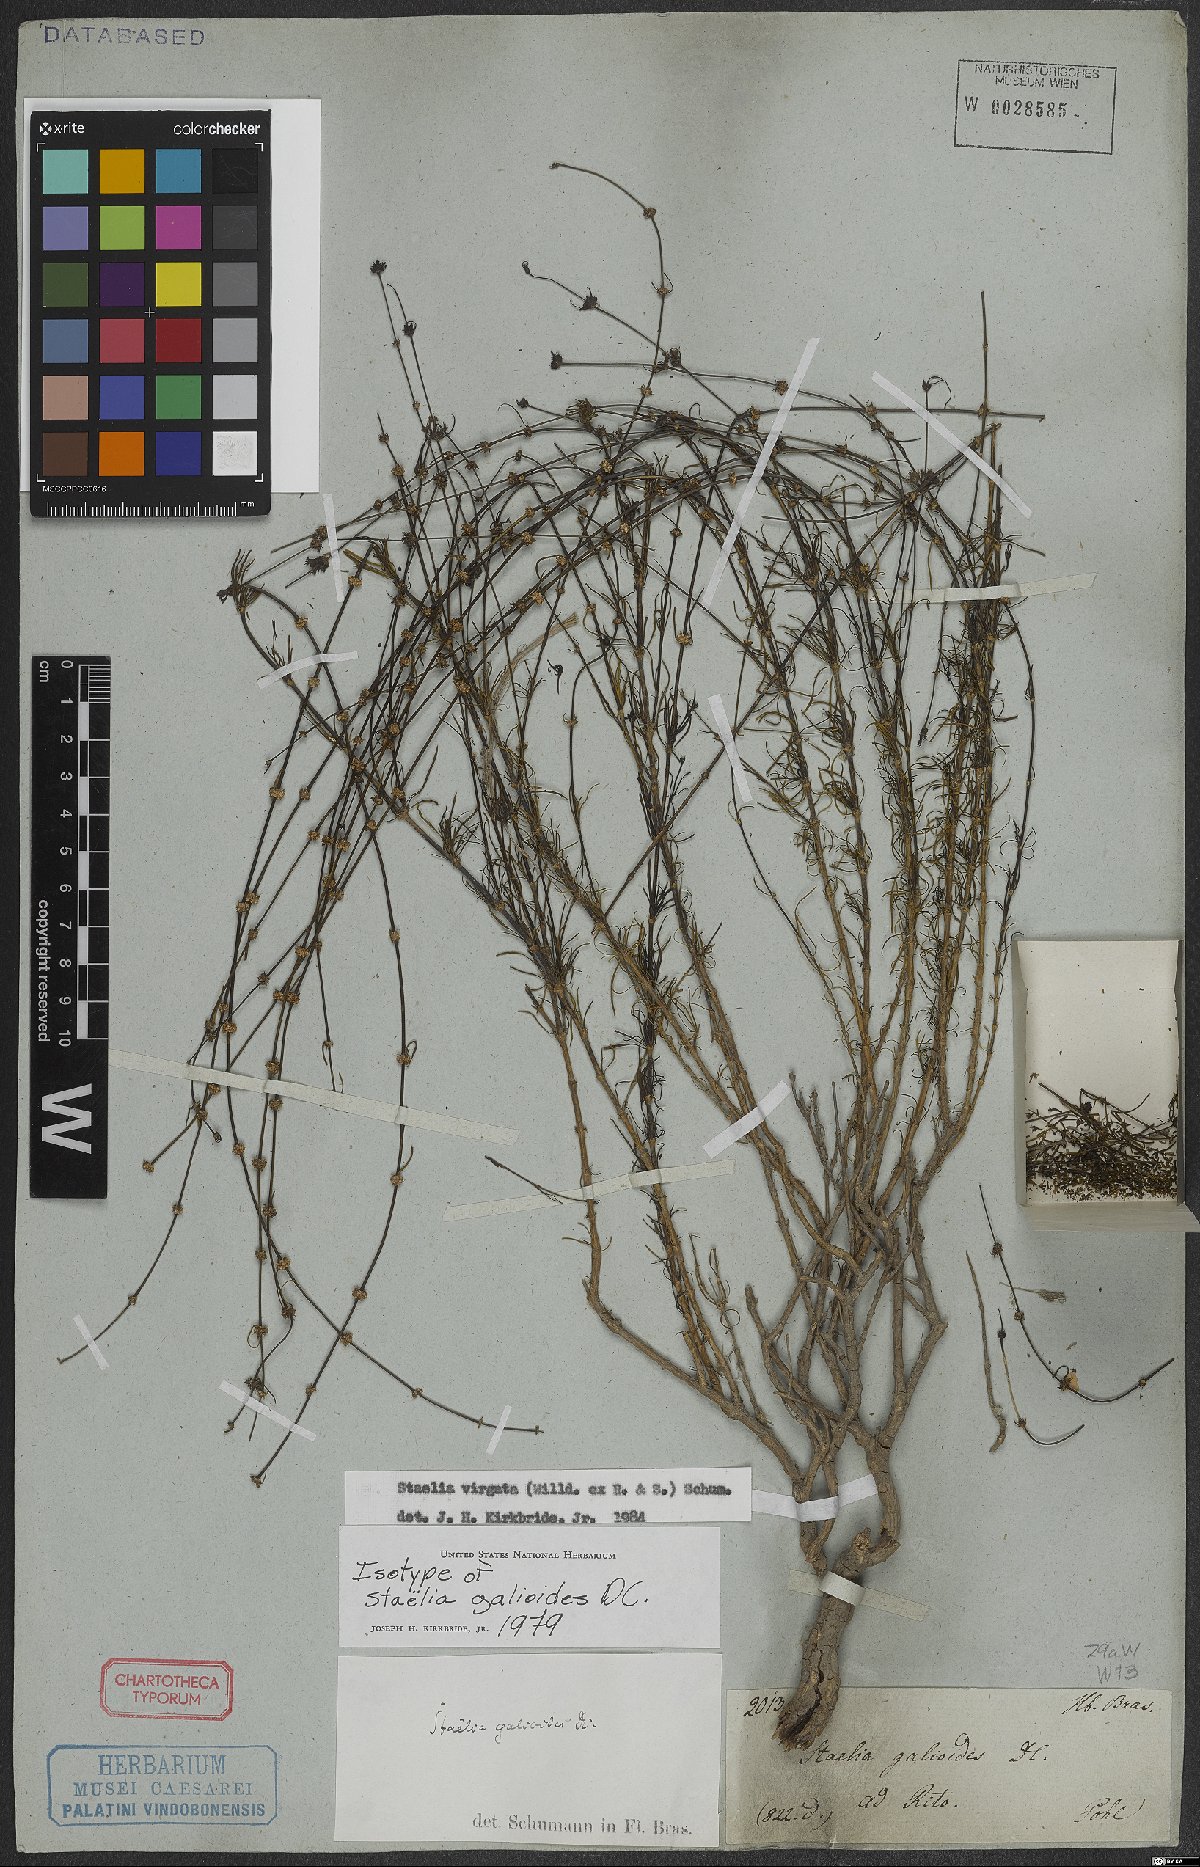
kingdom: Plantae
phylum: Tracheophyta
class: Magnoliopsida
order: Gentianales
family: Rubiaceae
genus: Staelia
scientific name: Staelia virgata
